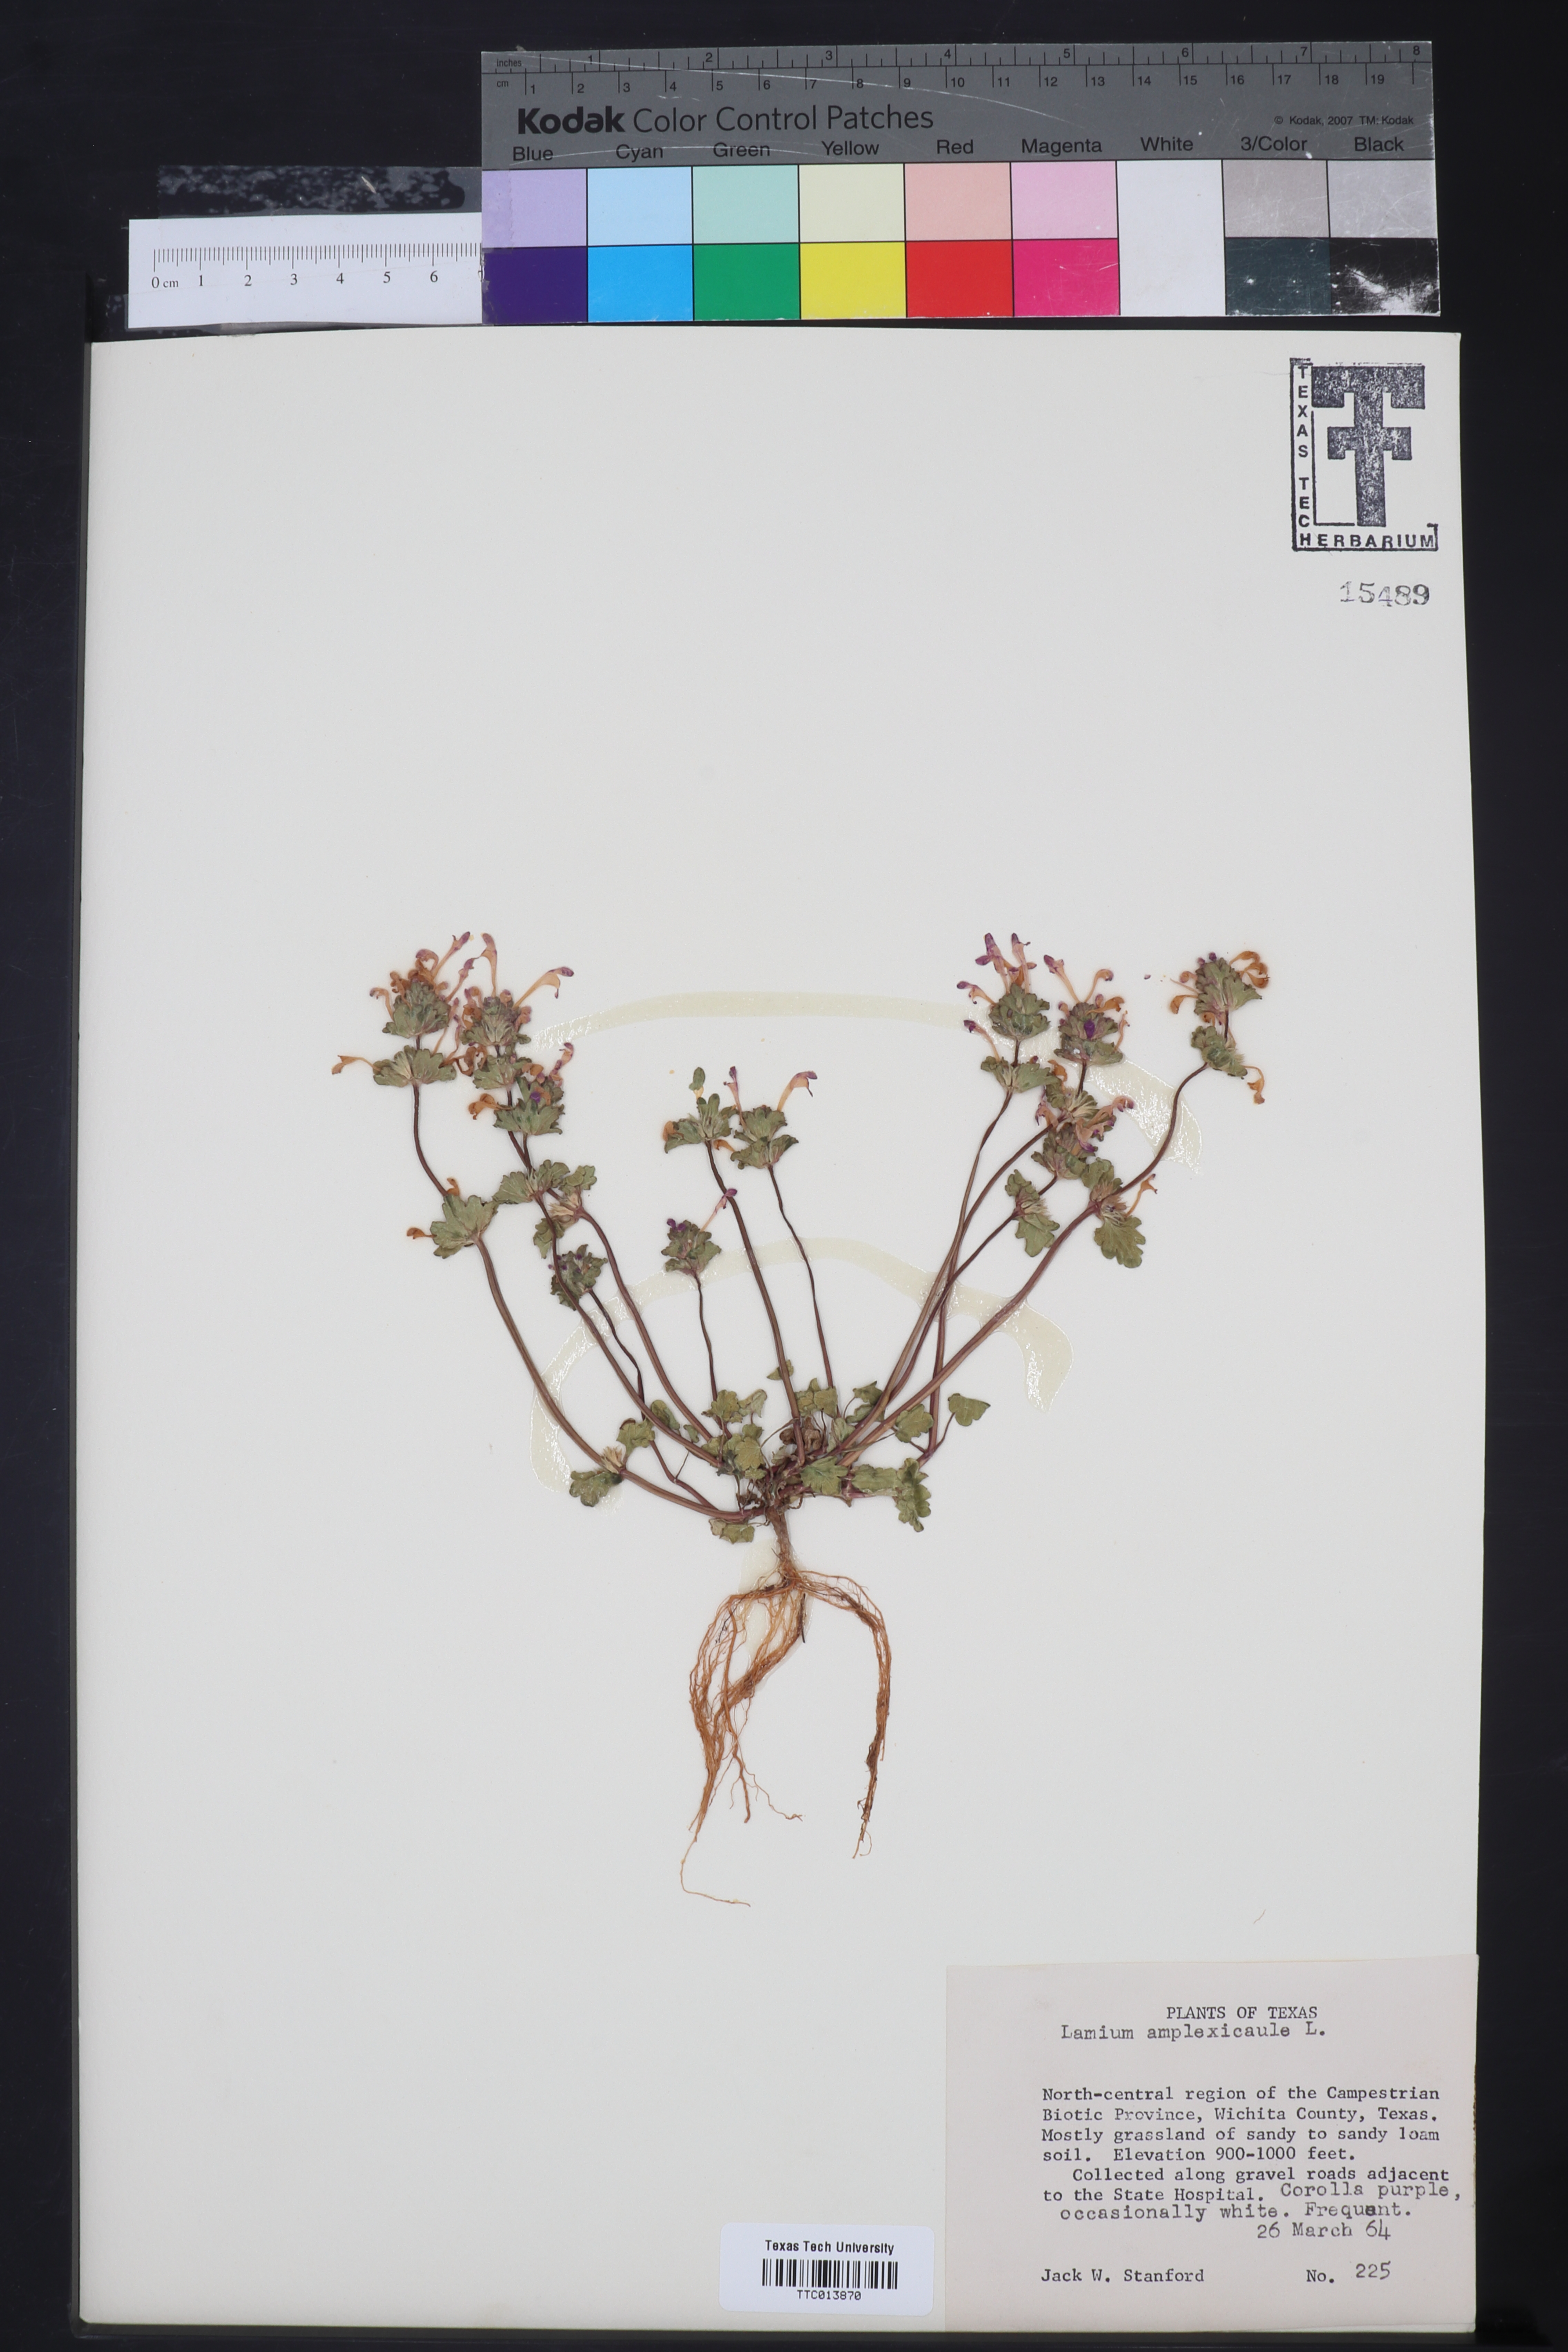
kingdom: Plantae
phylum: Tracheophyta
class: Magnoliopsida
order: Lamiales
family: Lamiaceae
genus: Lamium
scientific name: Lamium amplexicaule
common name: Henbit dead-nettle
